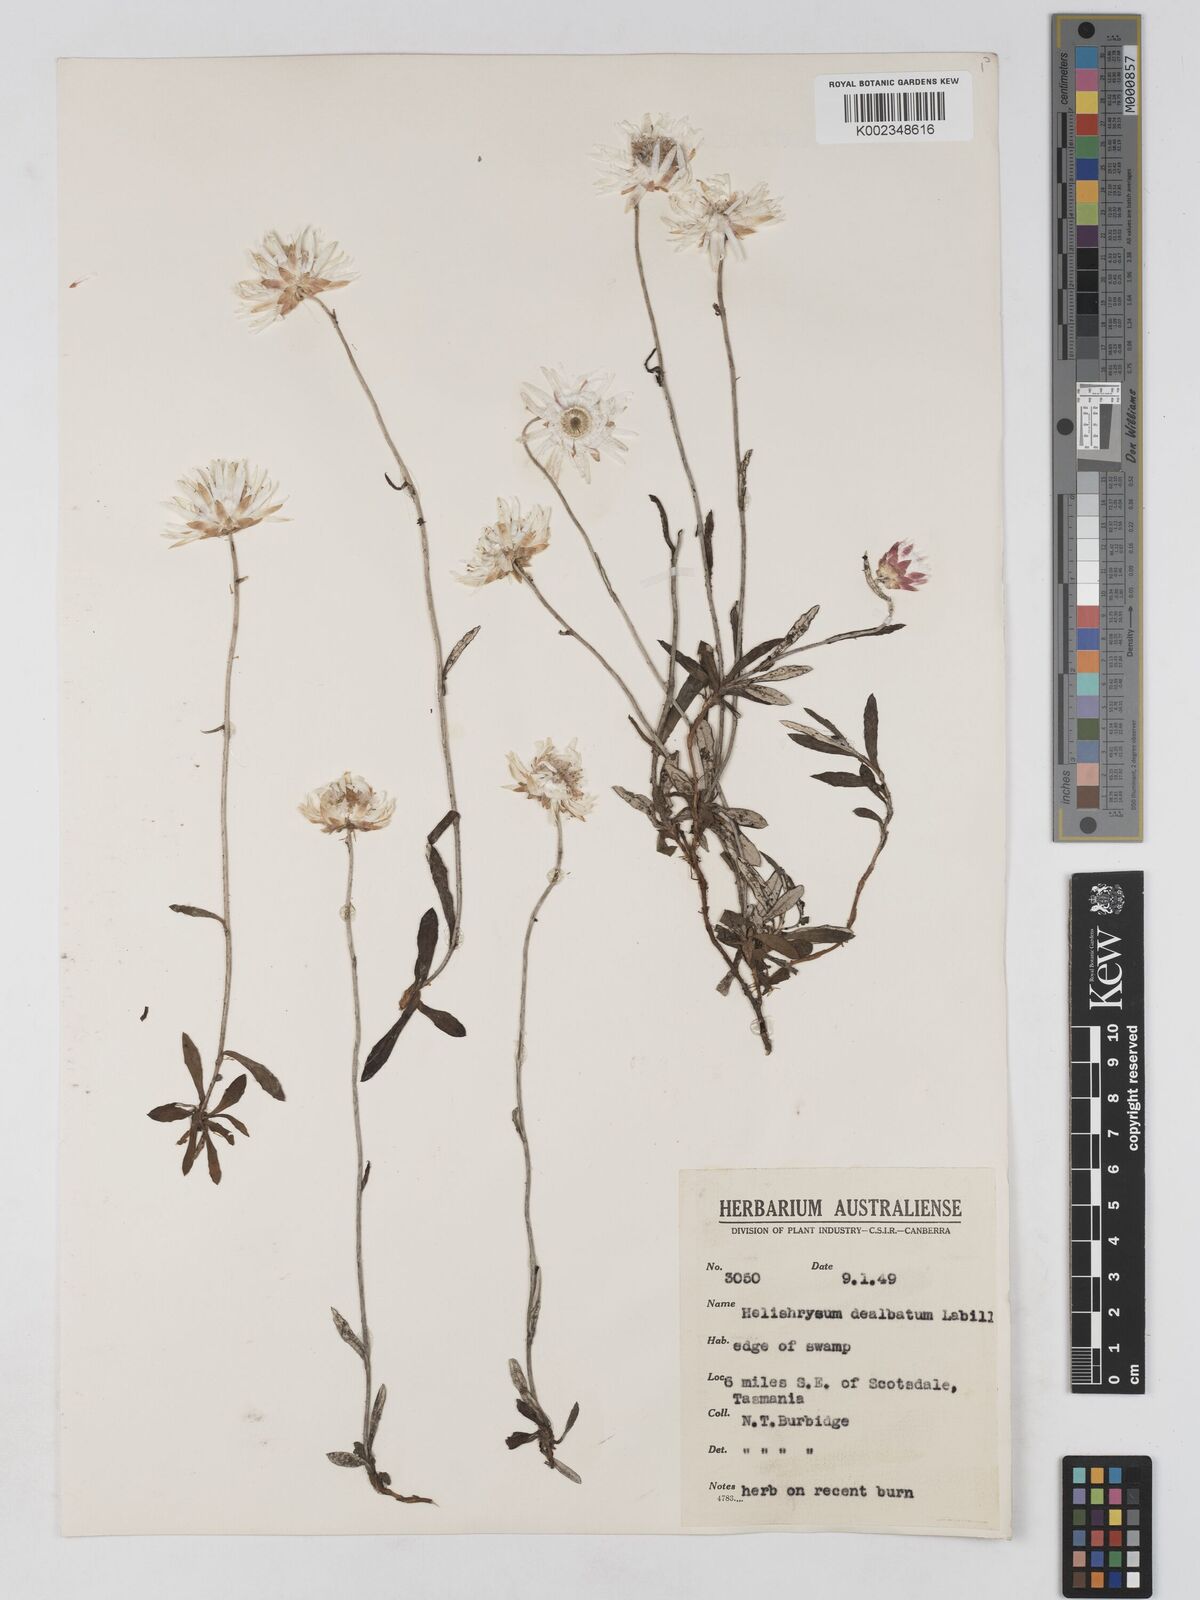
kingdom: Plantae
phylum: Tracheophyta
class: Magnoliopsida
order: Asterales
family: Asteraceae
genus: Argentipallium
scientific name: Argentipallium dealbatum
